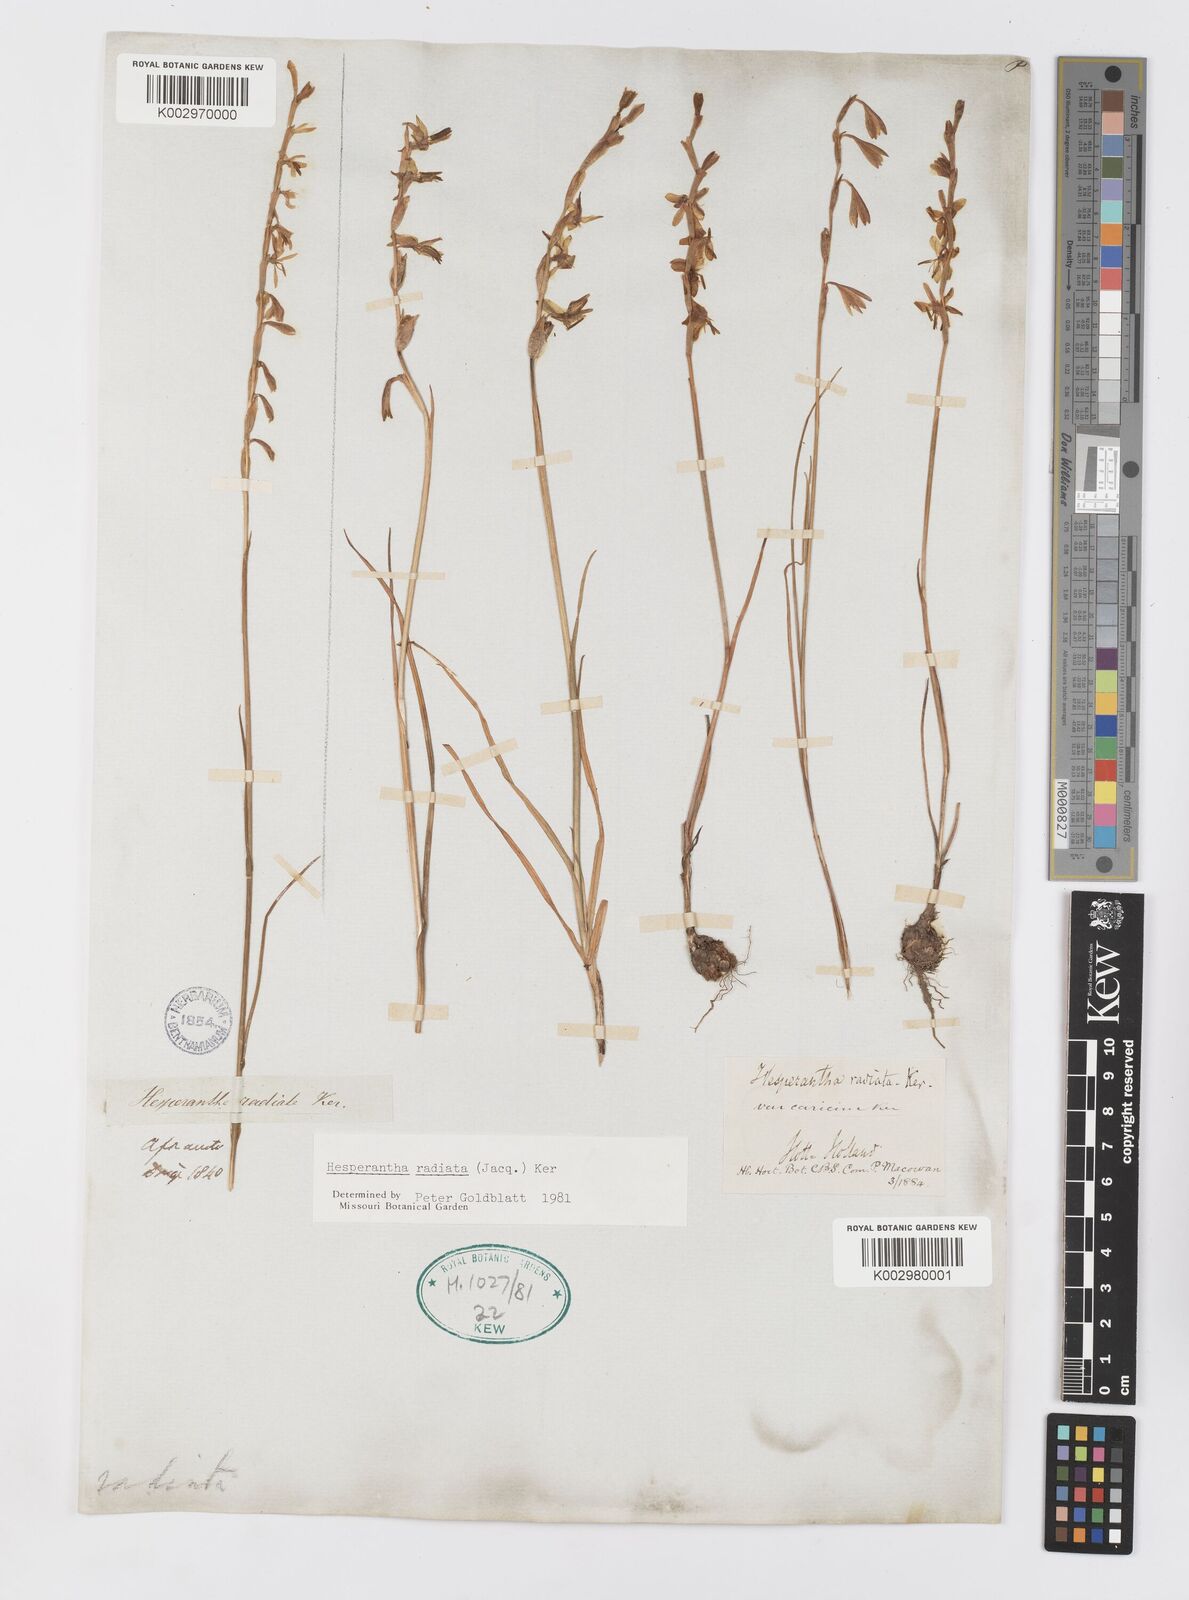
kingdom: Plantae
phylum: Tracheophyta
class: Liliopsida
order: Asparagales
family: Iridaceae
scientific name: Iridaceae
